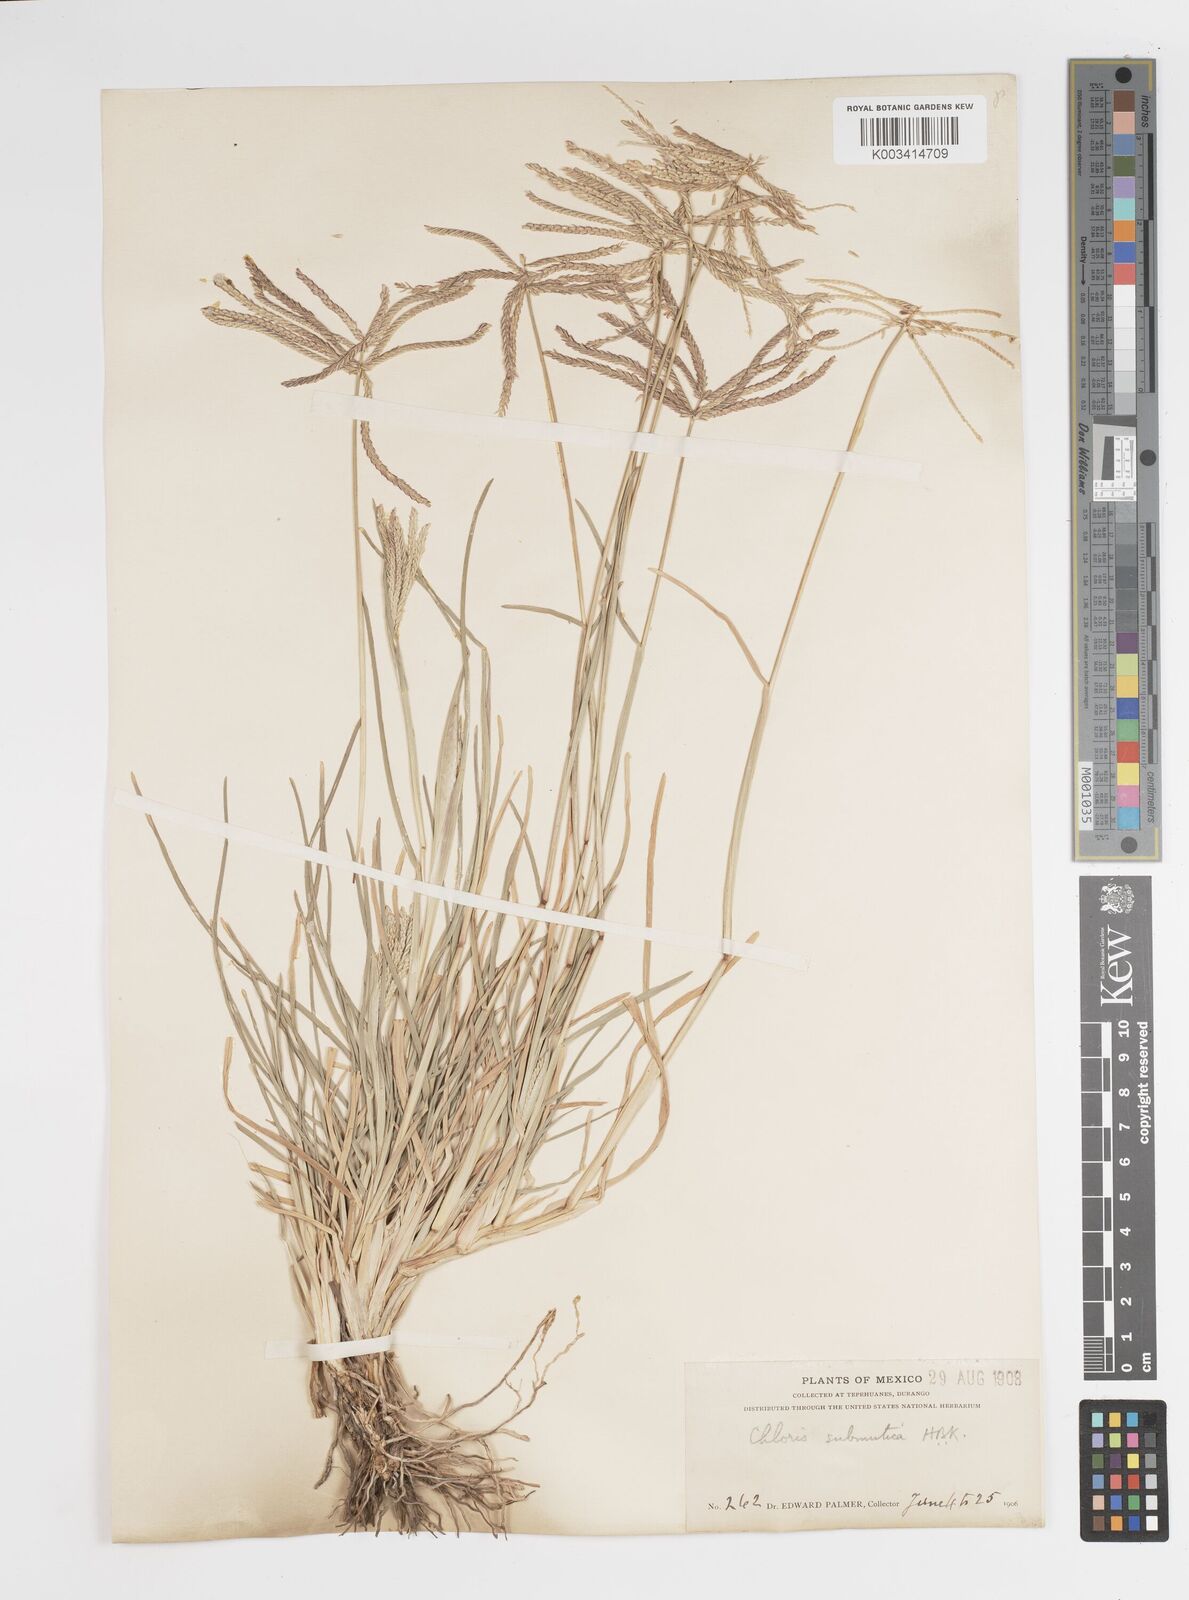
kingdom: Plantae
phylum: Tracheophyta
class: Liliopsida
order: Poales
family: Poaceae
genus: Chloris
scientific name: Chloris submutica
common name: Mexican windmill grass
